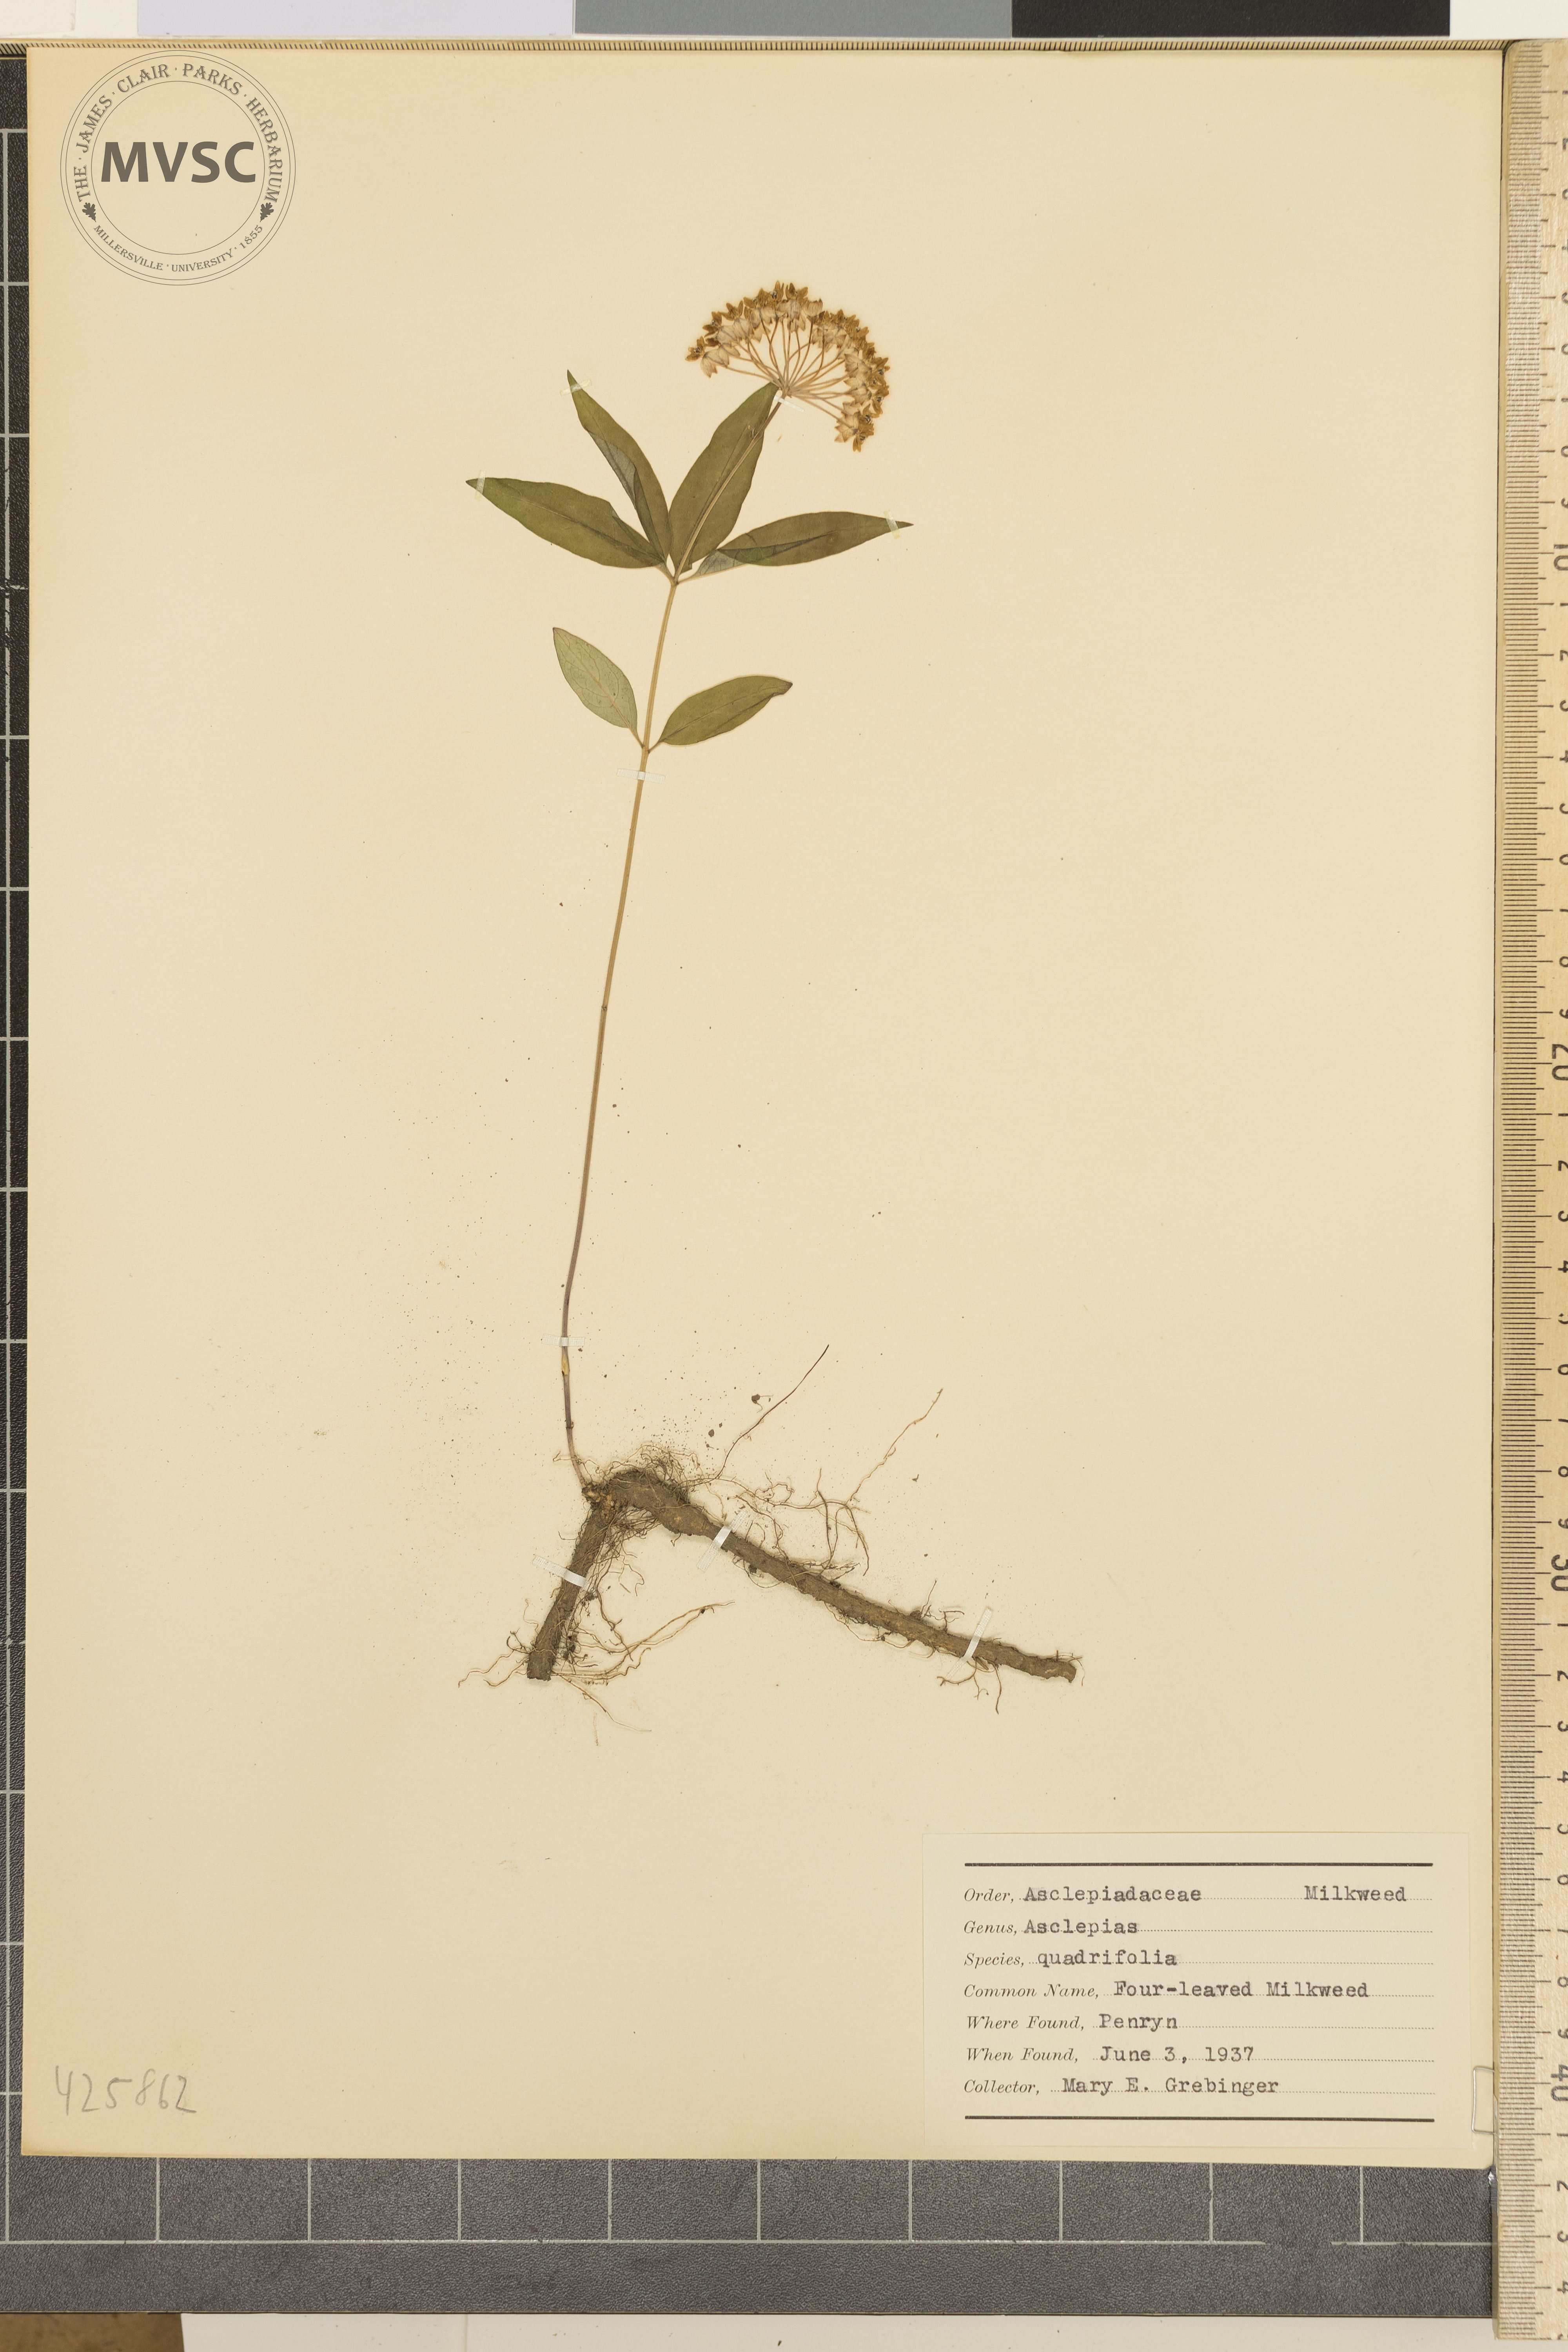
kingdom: Plantae
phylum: Tracheophyta
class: Magnoliopsida
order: Gentianales
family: Apocynaceae
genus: Asclepias
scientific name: Asclepias quadrifolia
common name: Four-leaved milkweed
